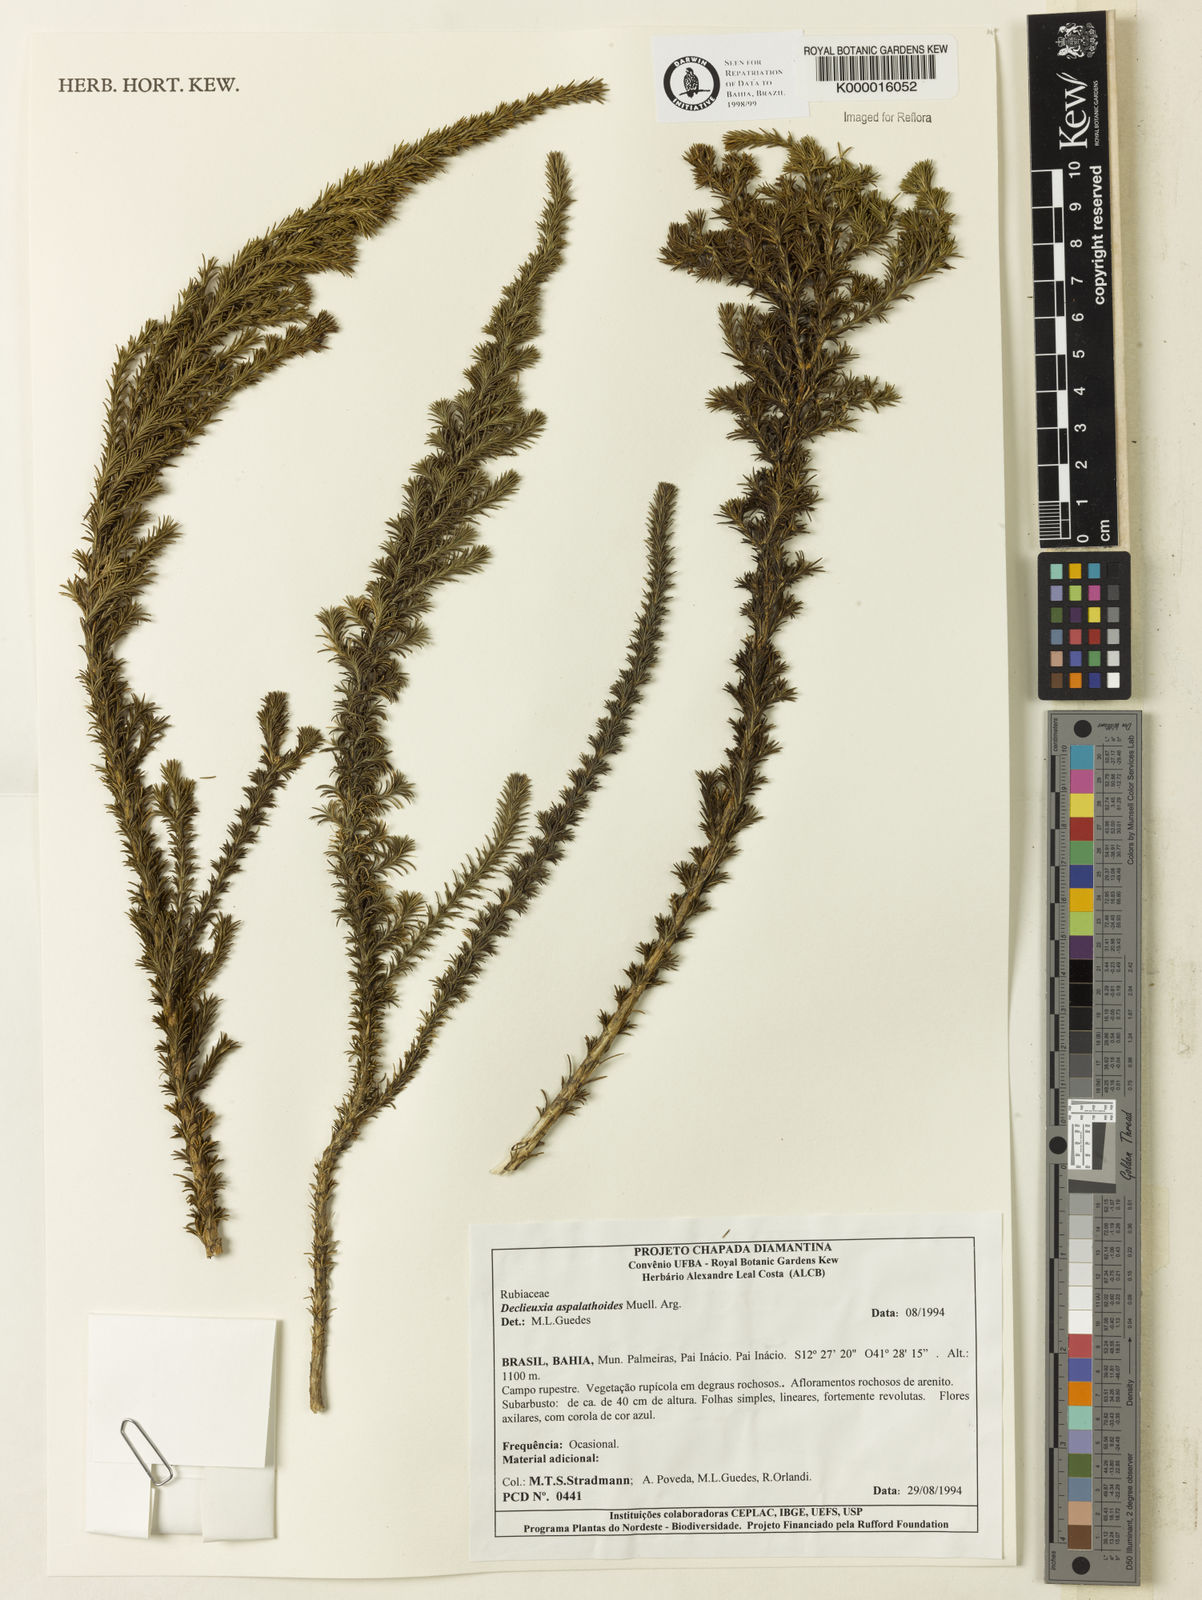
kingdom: Plantae
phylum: Tracheophyta
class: Magnoliopsida
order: Gentianales
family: Rubiaceae
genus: Declieuxia
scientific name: Declieuxia aspalathoides
